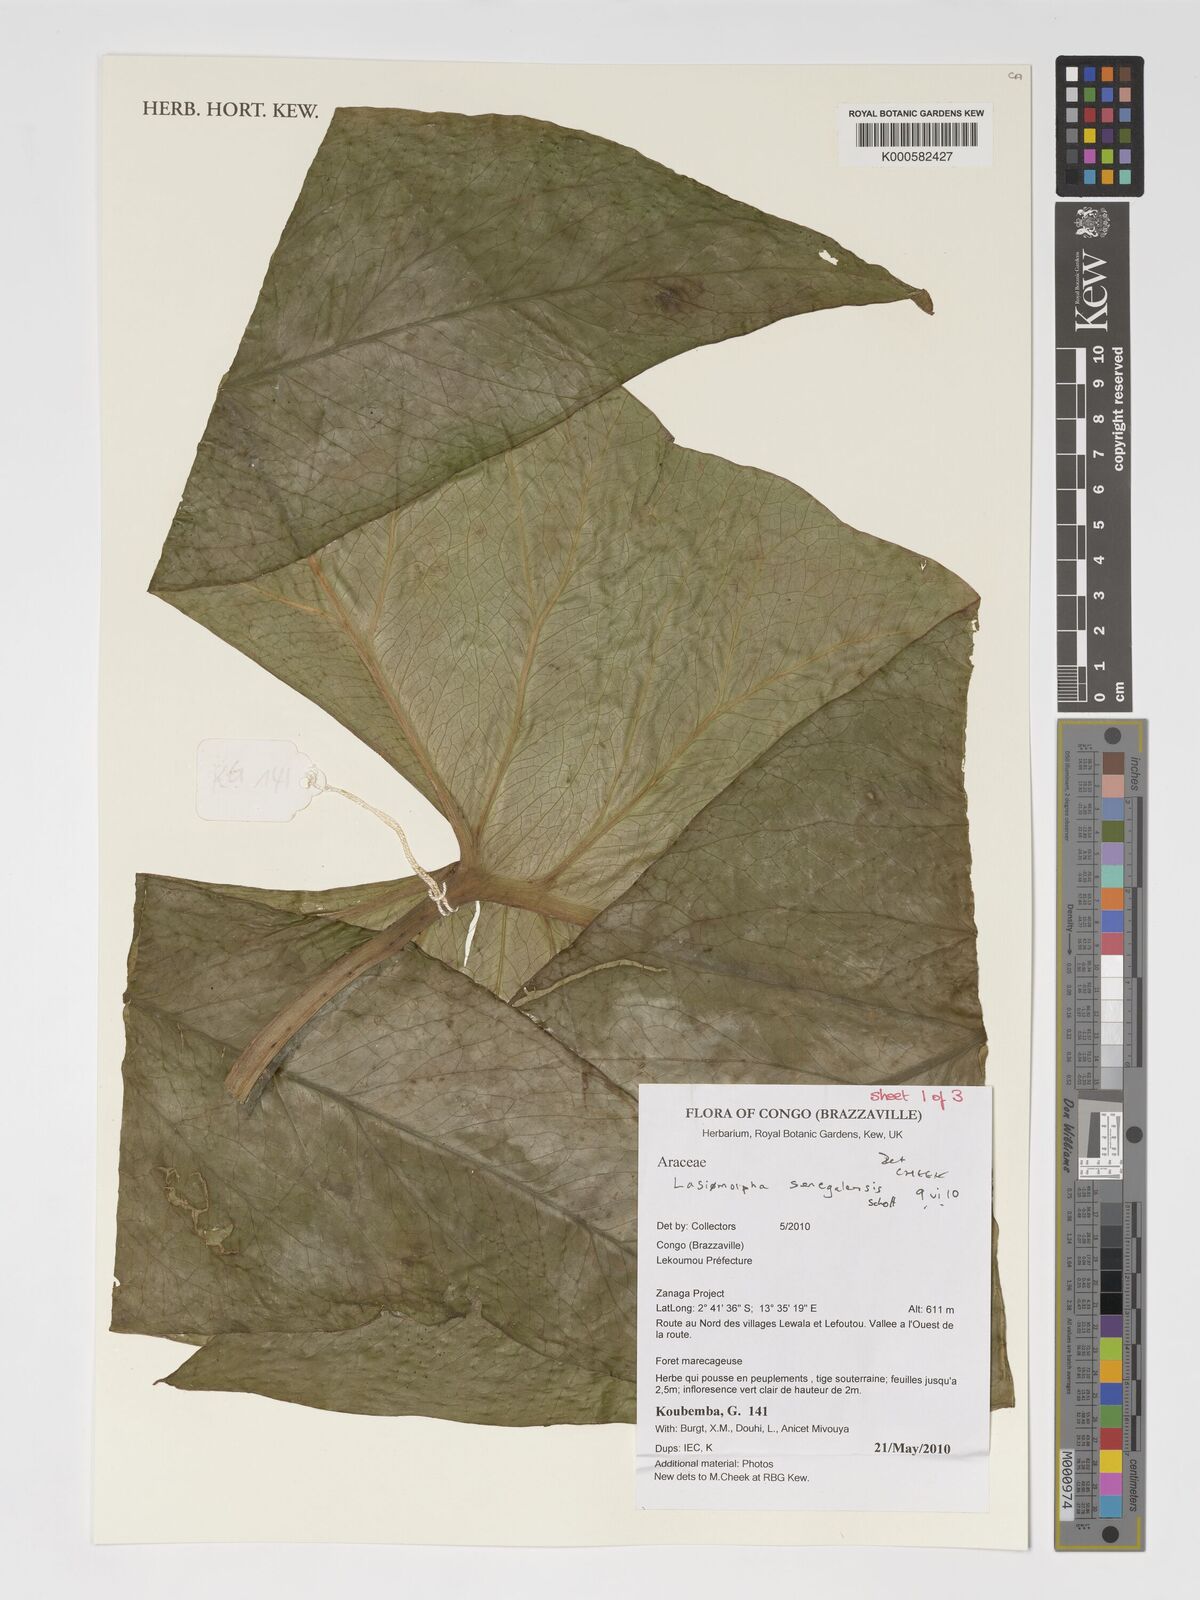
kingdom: Plantae
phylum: Tracheophyta
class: Liliopsida
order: Alismatales
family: Araceae
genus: Lasimorpha
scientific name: Lasimorpha senegalensis
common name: Swamp arum
